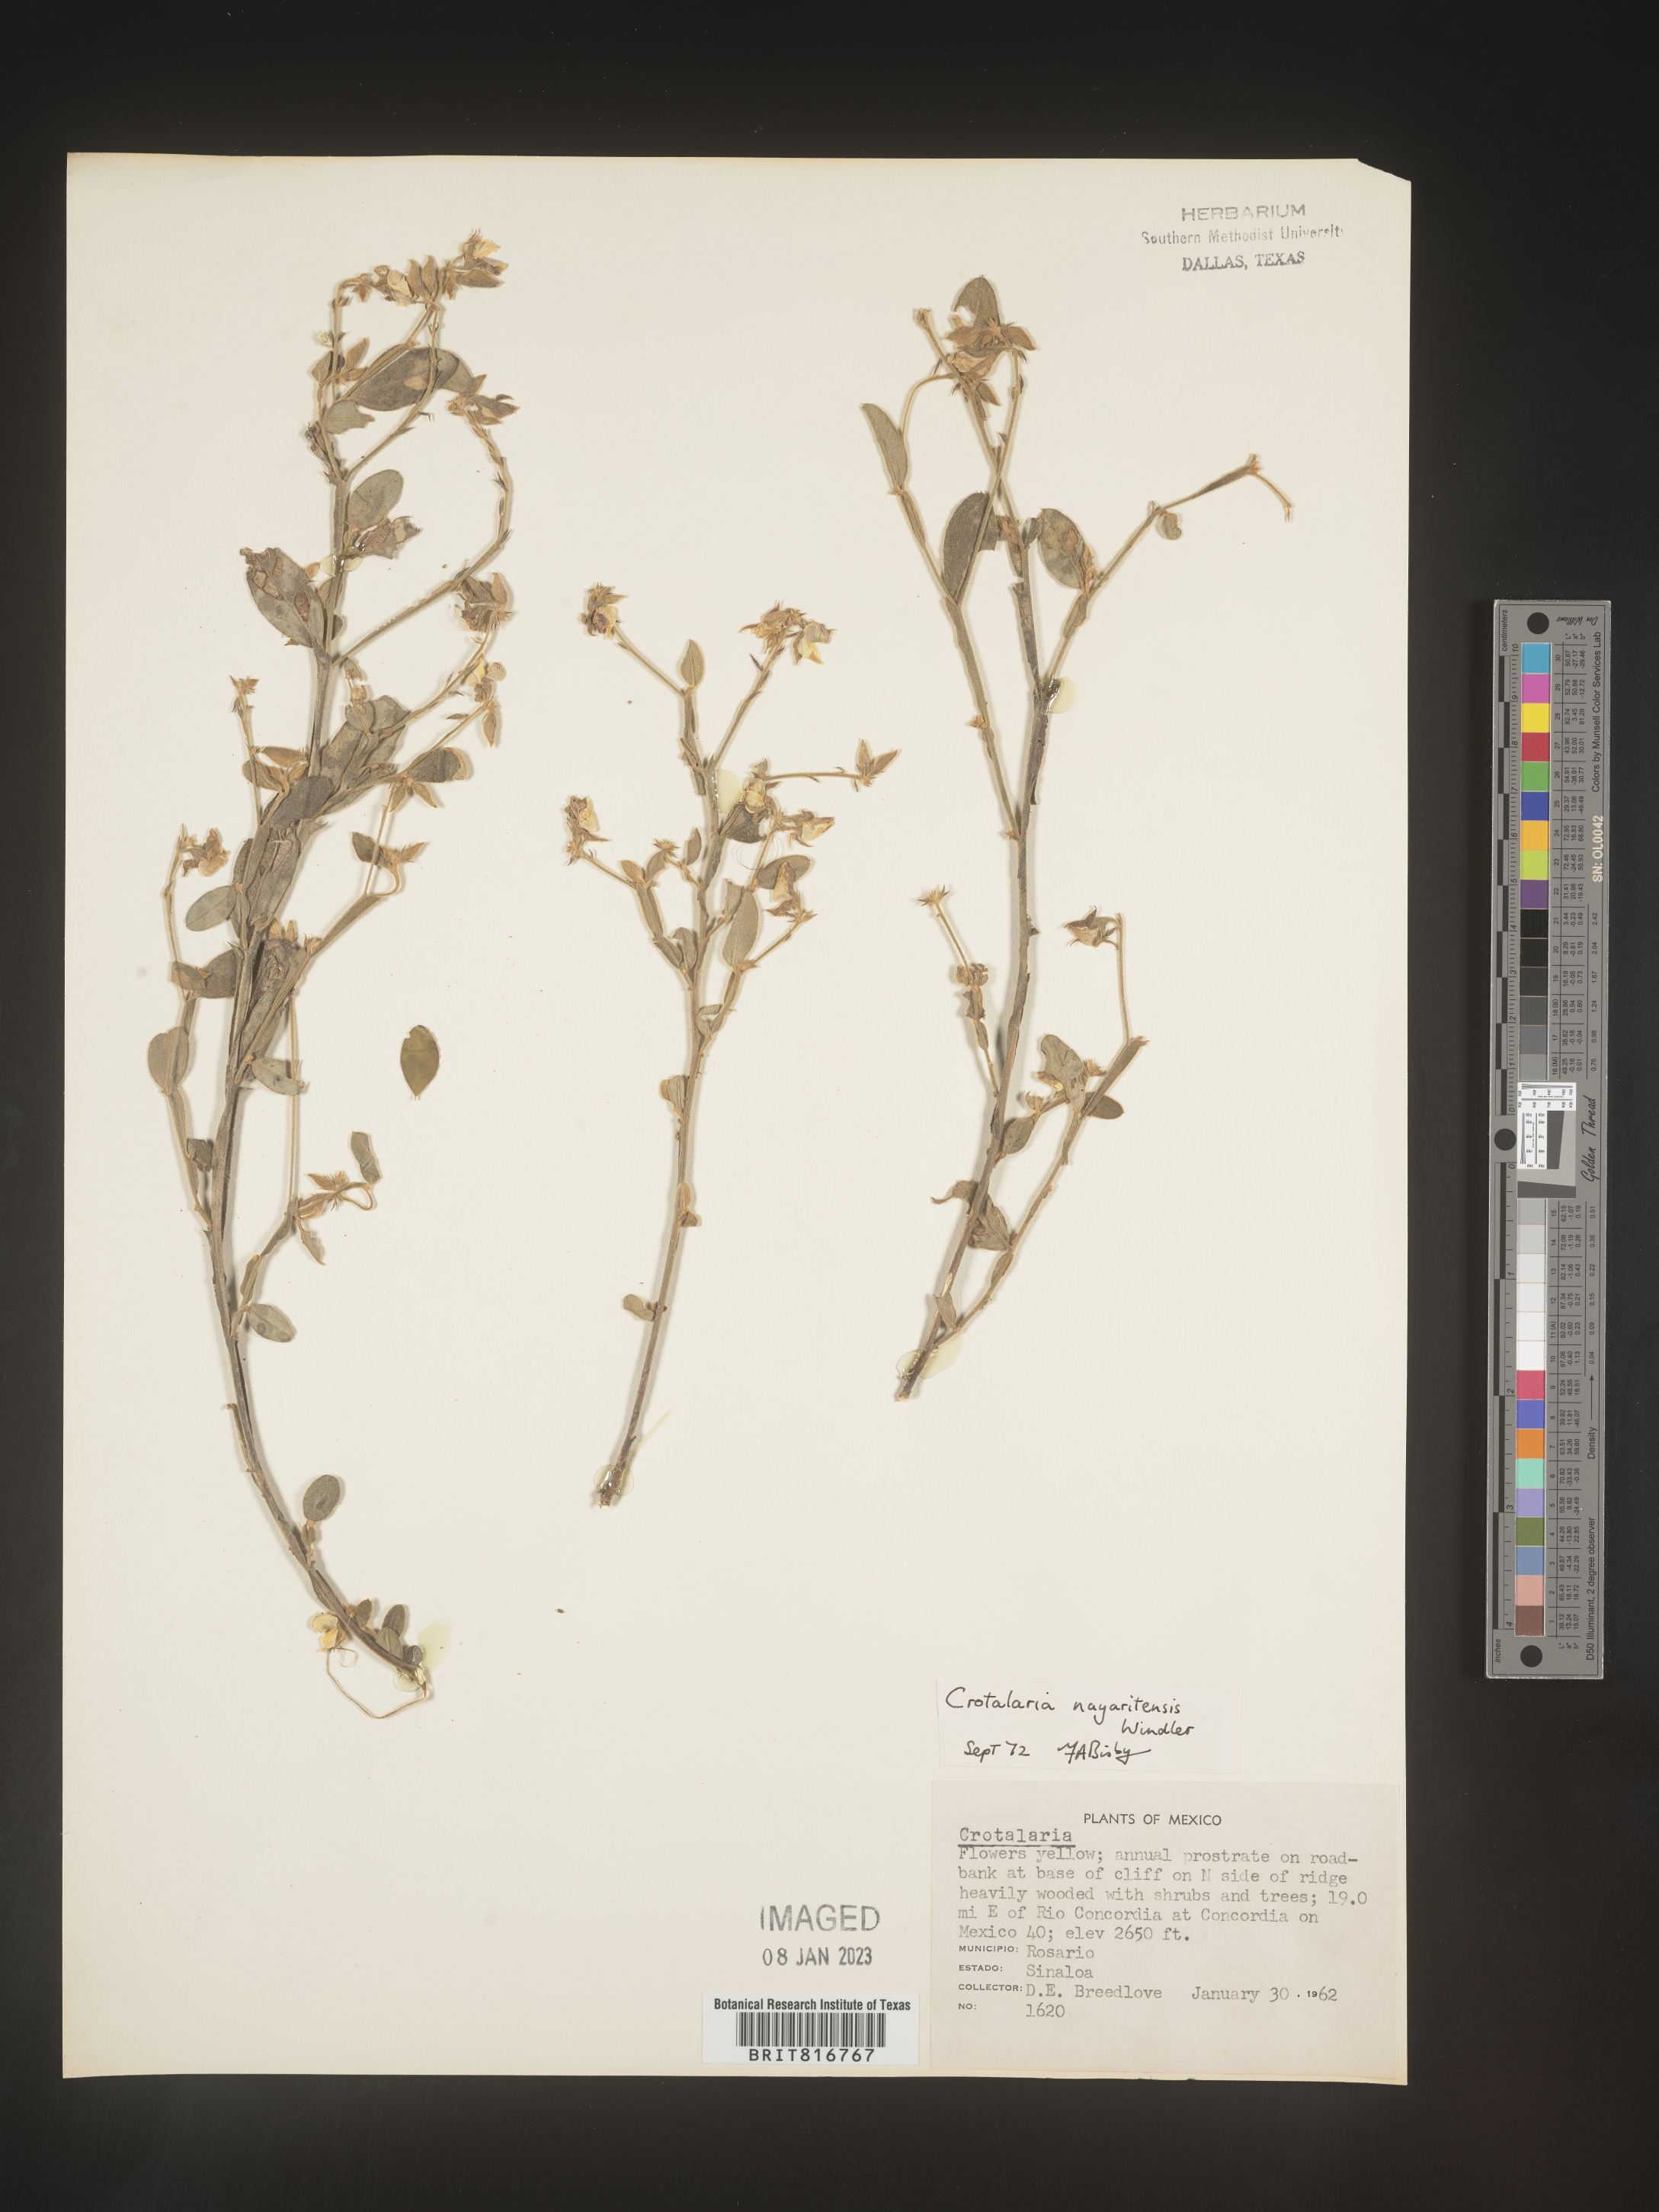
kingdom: Plantae
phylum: Tracheophyta
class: Magnoliopsida
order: Fabales
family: Fabaceae
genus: Crotalaria
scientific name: Crotalaria
